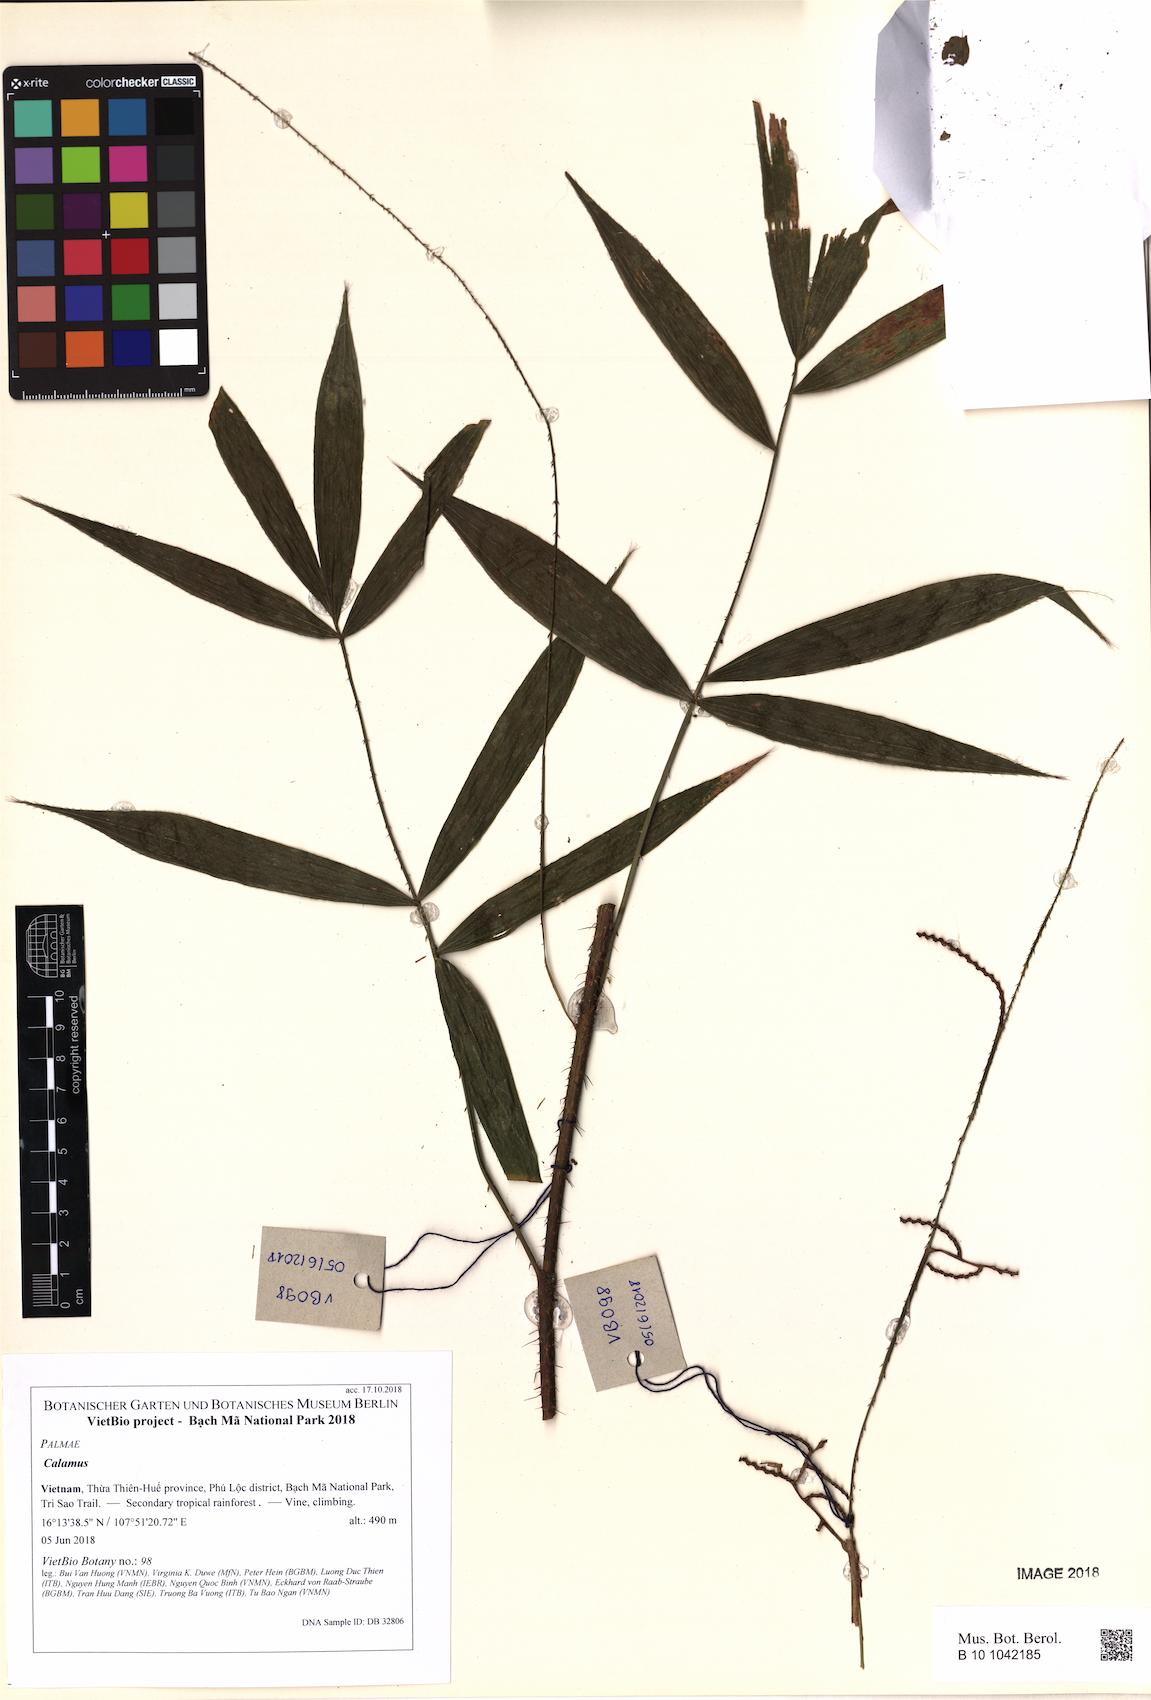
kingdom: Plantae
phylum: Tracheophyta
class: Liliopsida
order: Arecales
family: Arecaceae
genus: Calamus
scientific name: Calamus
